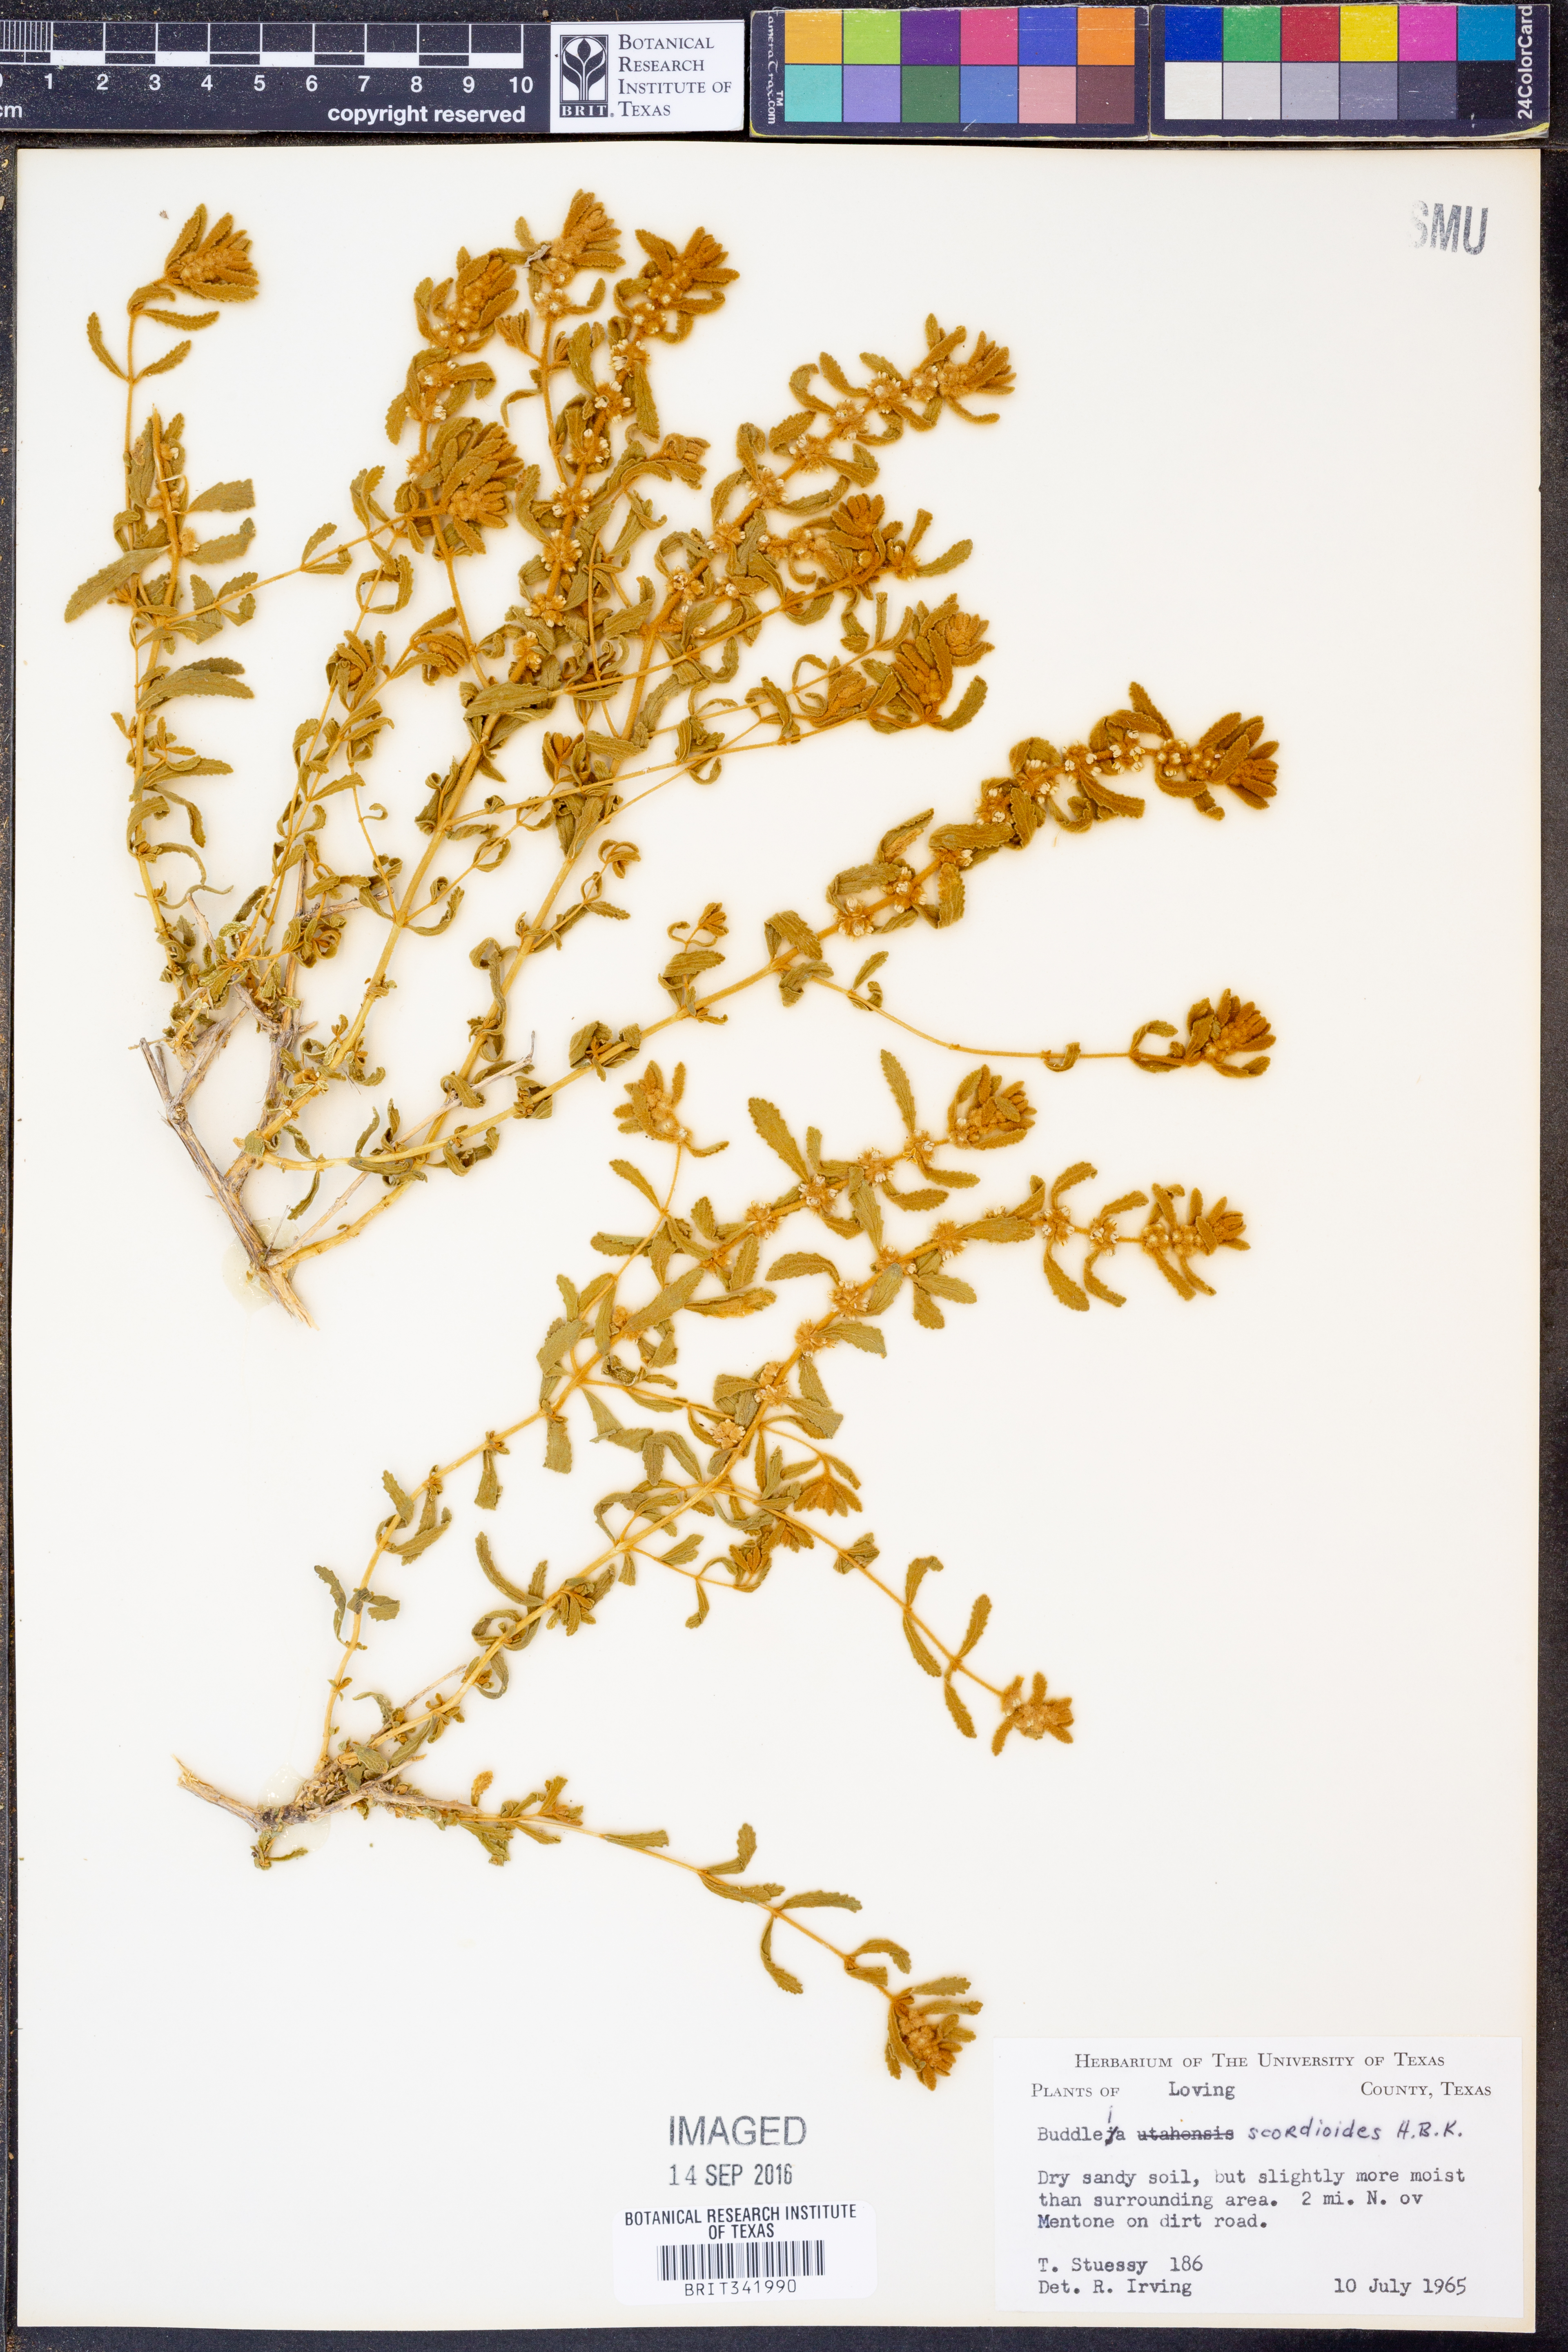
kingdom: Plantae
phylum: Tracheophyta
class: Magnoliopsida
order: Lamiales
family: Scrophulariaceae
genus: Buddleja
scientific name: Buddleja scordioides
